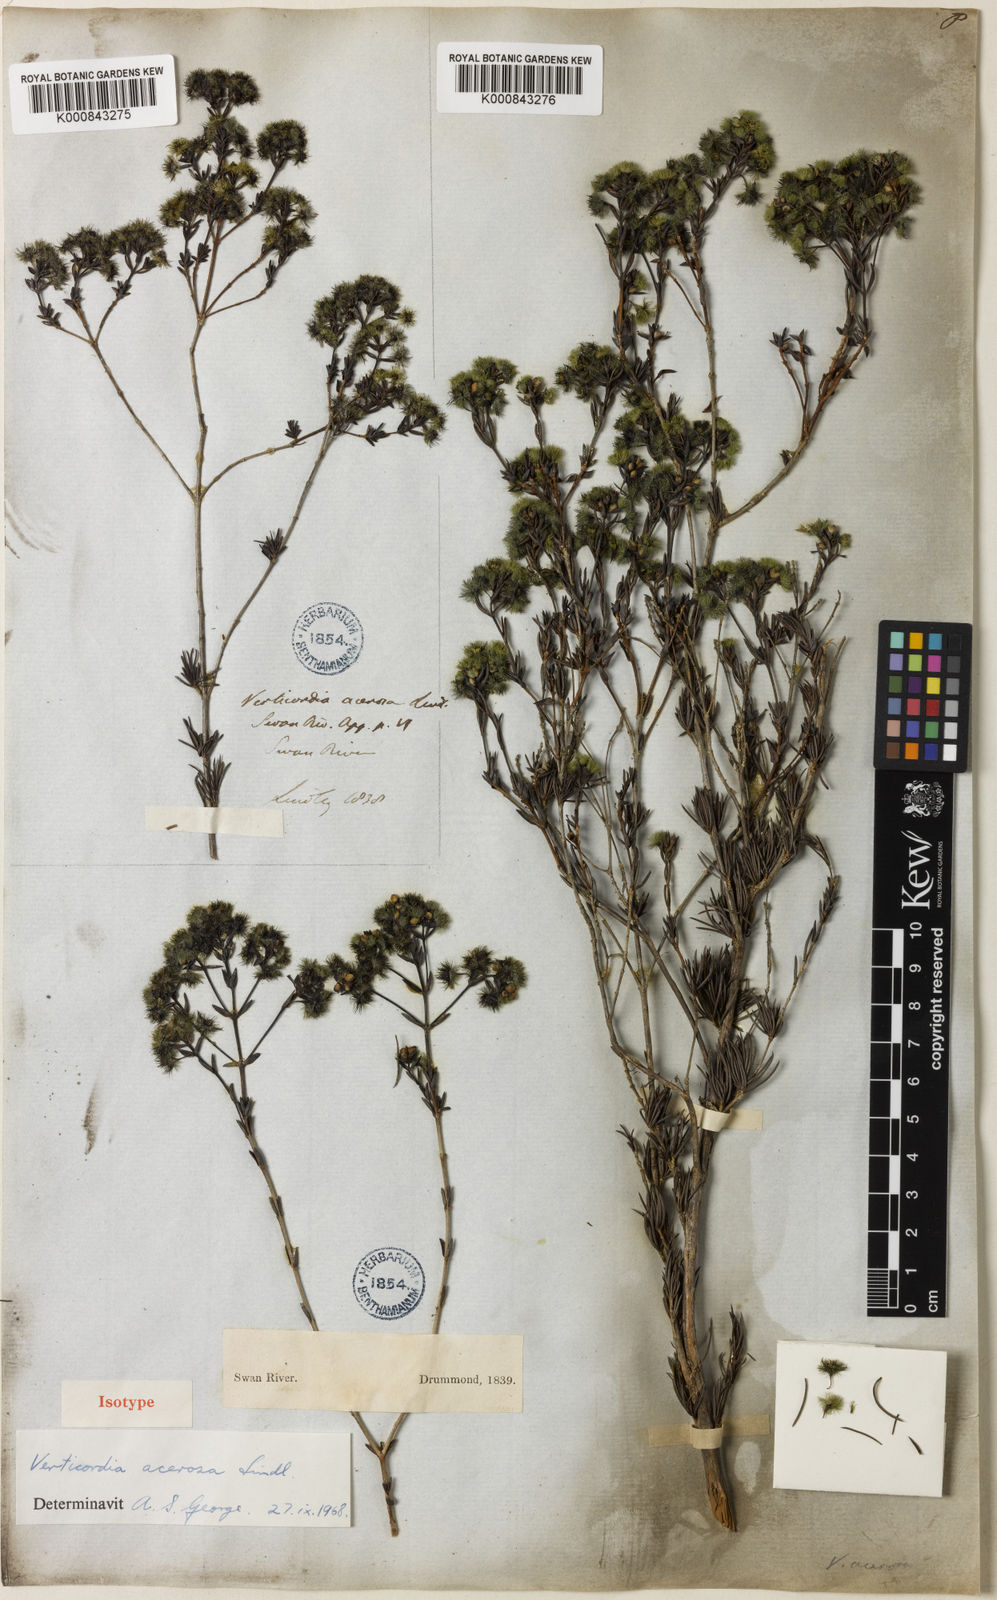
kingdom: Plantae
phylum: Tracheophyta
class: Magnoliopsida
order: Myrtales
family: Myrtaceae
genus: Verticordia
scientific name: Verticordia acerosa
